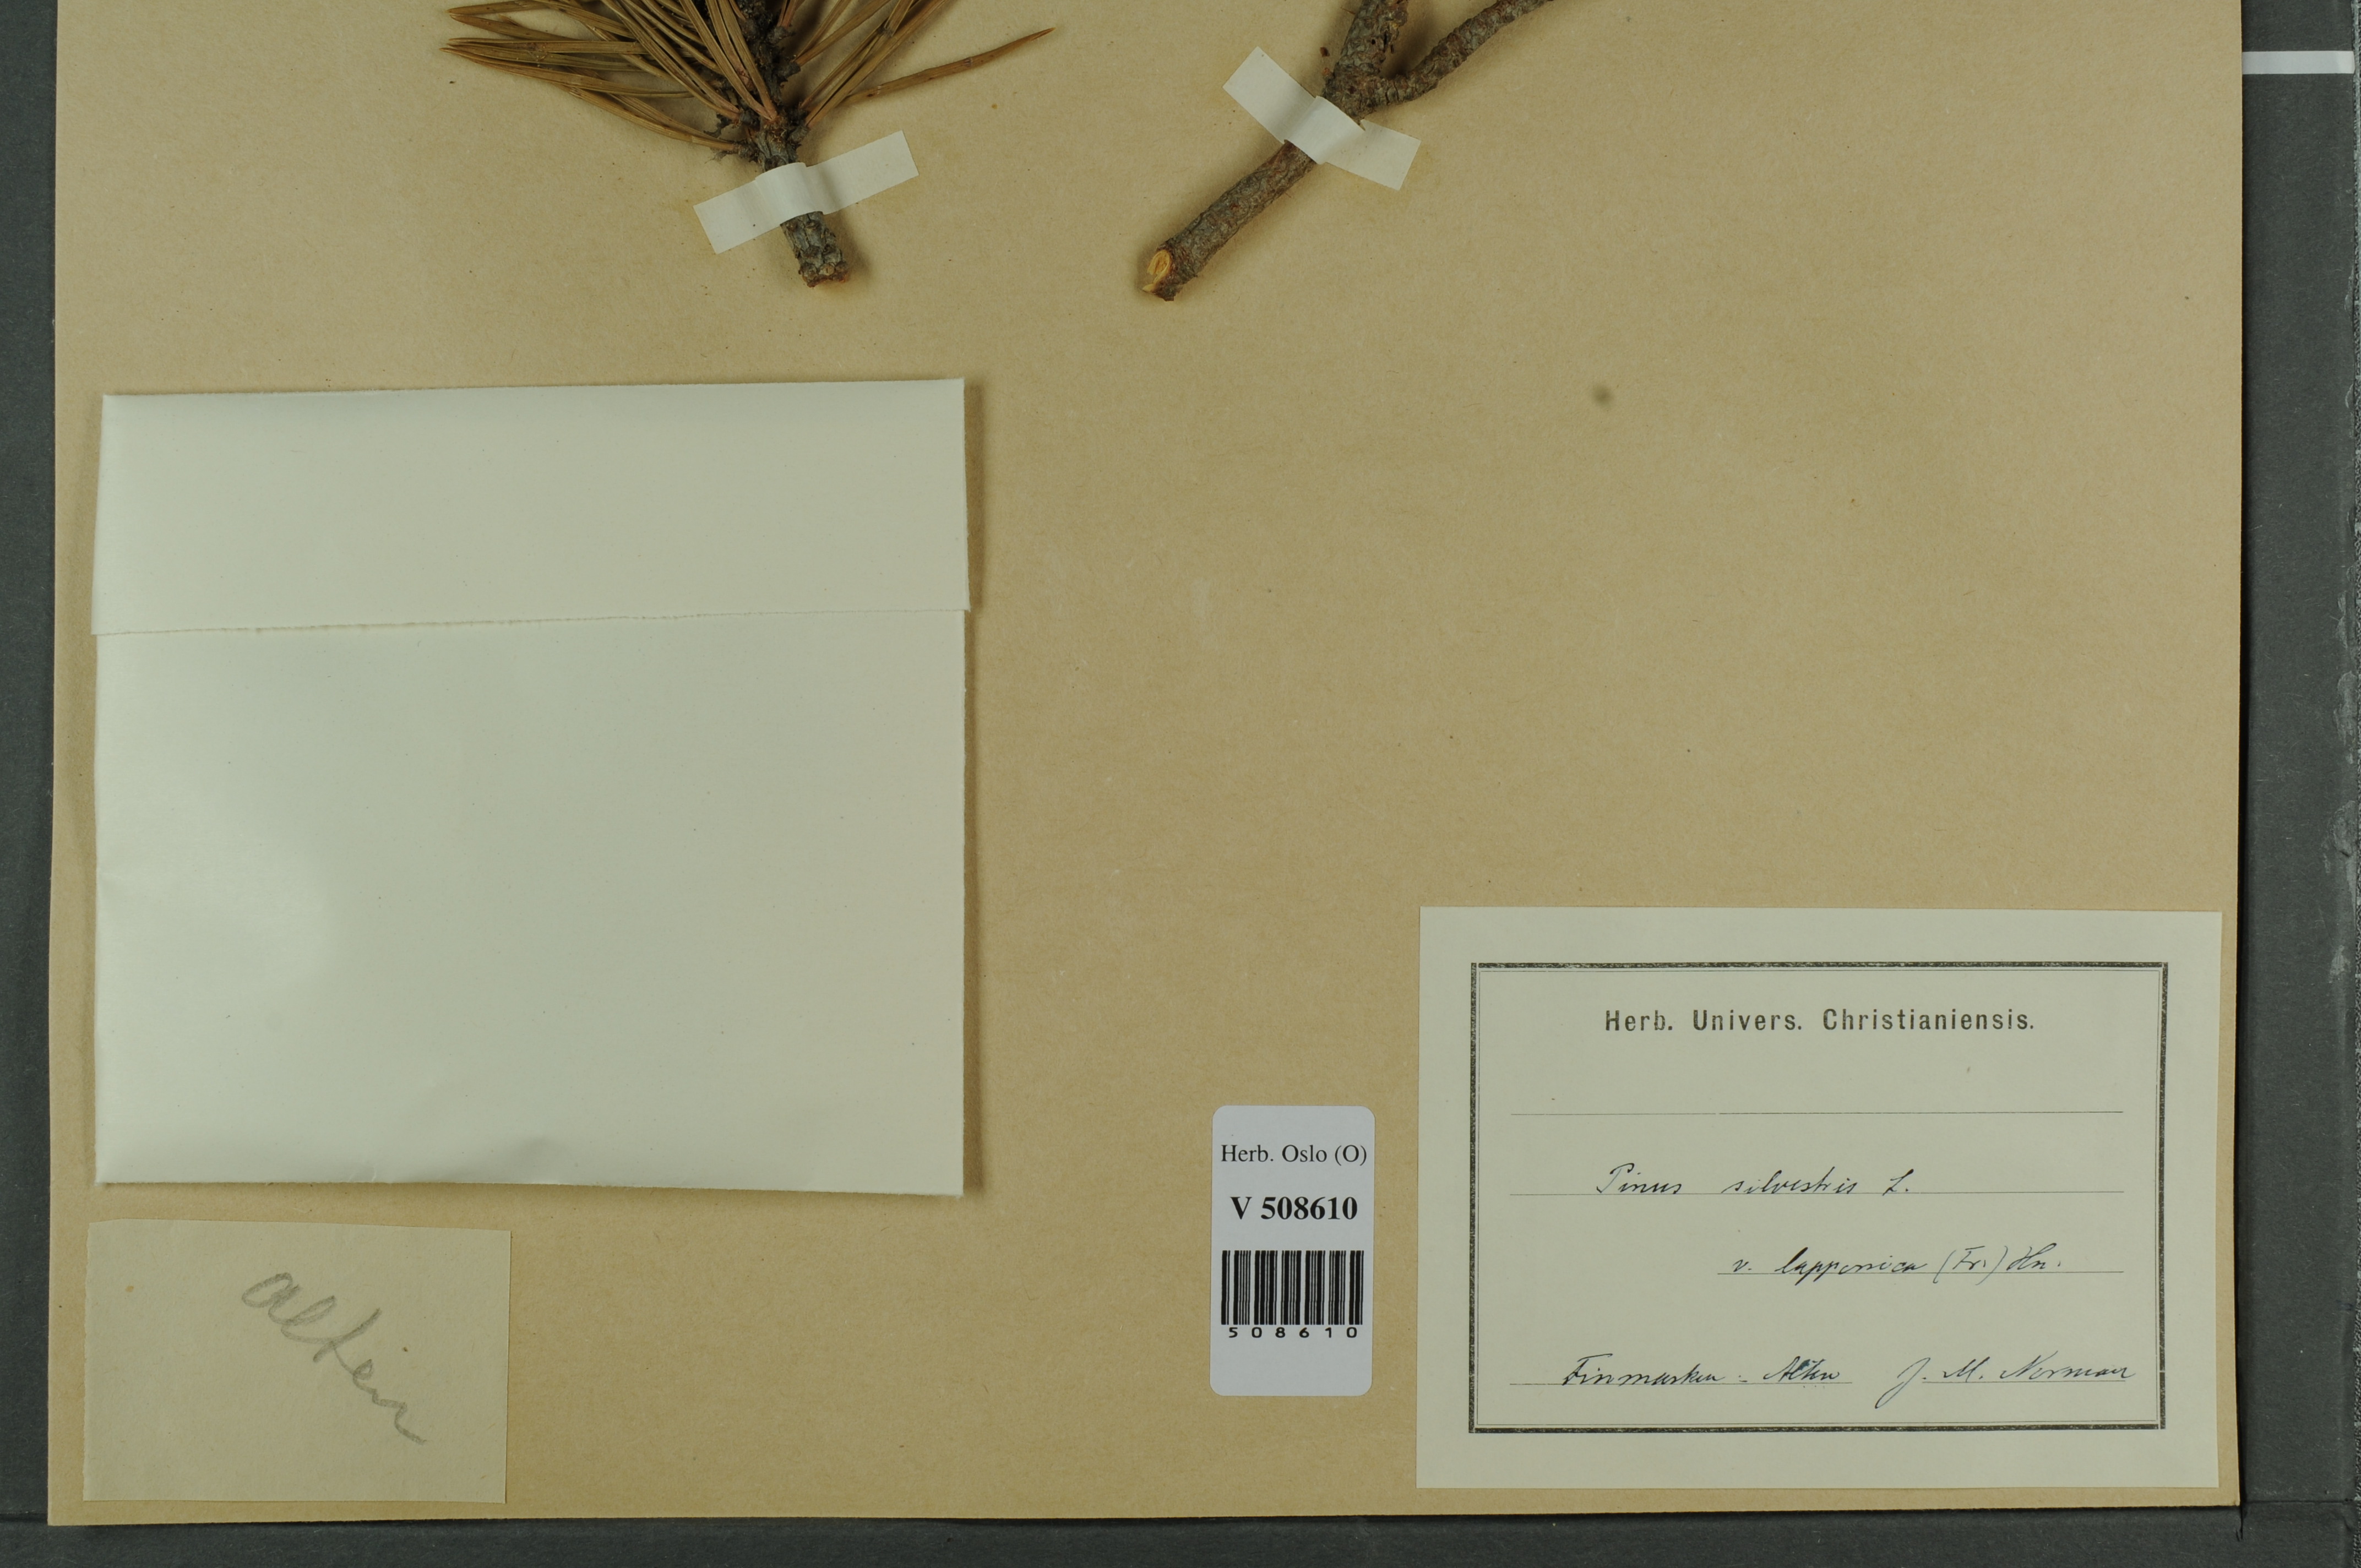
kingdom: Plantae
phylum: Tracheophyta
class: Pinopsida
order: Pinales
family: Pinaceae
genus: Pinus
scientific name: Pinus sylvestris
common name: Scots pine
